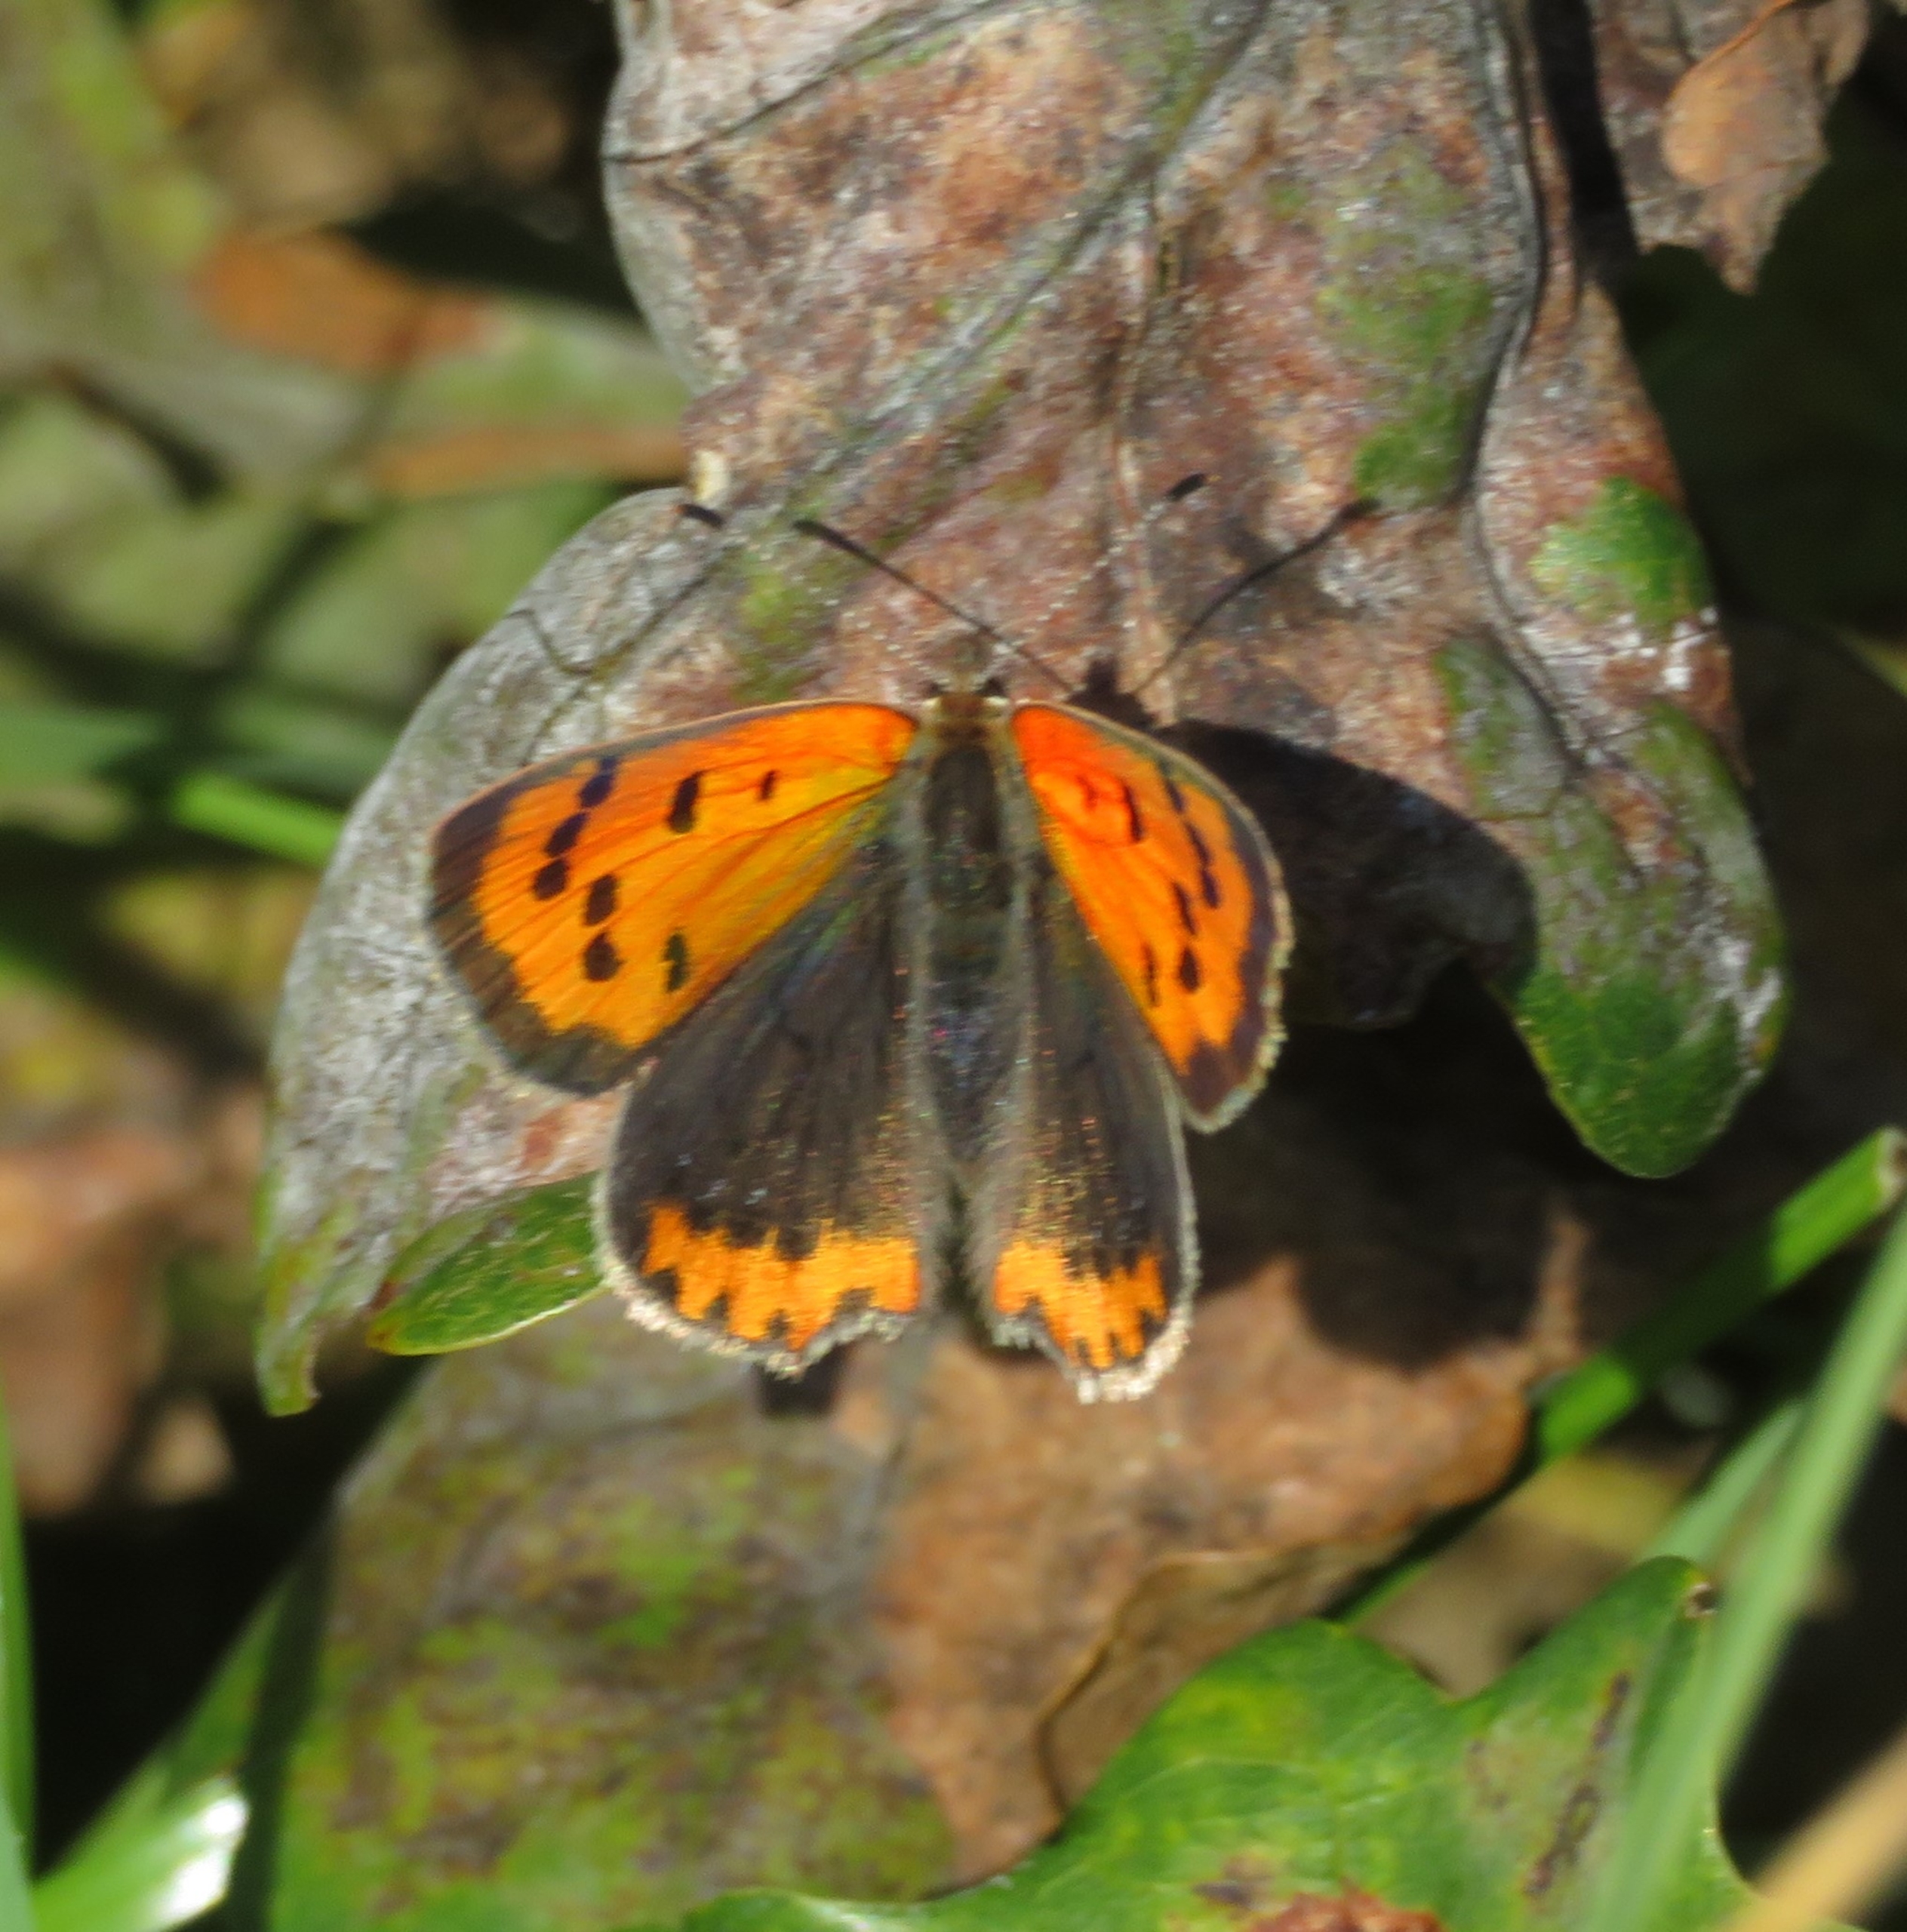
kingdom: Animalia
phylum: Arthropoda
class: Insecta
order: Lepidoptera
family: Lycaenidae
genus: Lycaena
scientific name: Lycaena phlaeas
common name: Lille ildfugl
